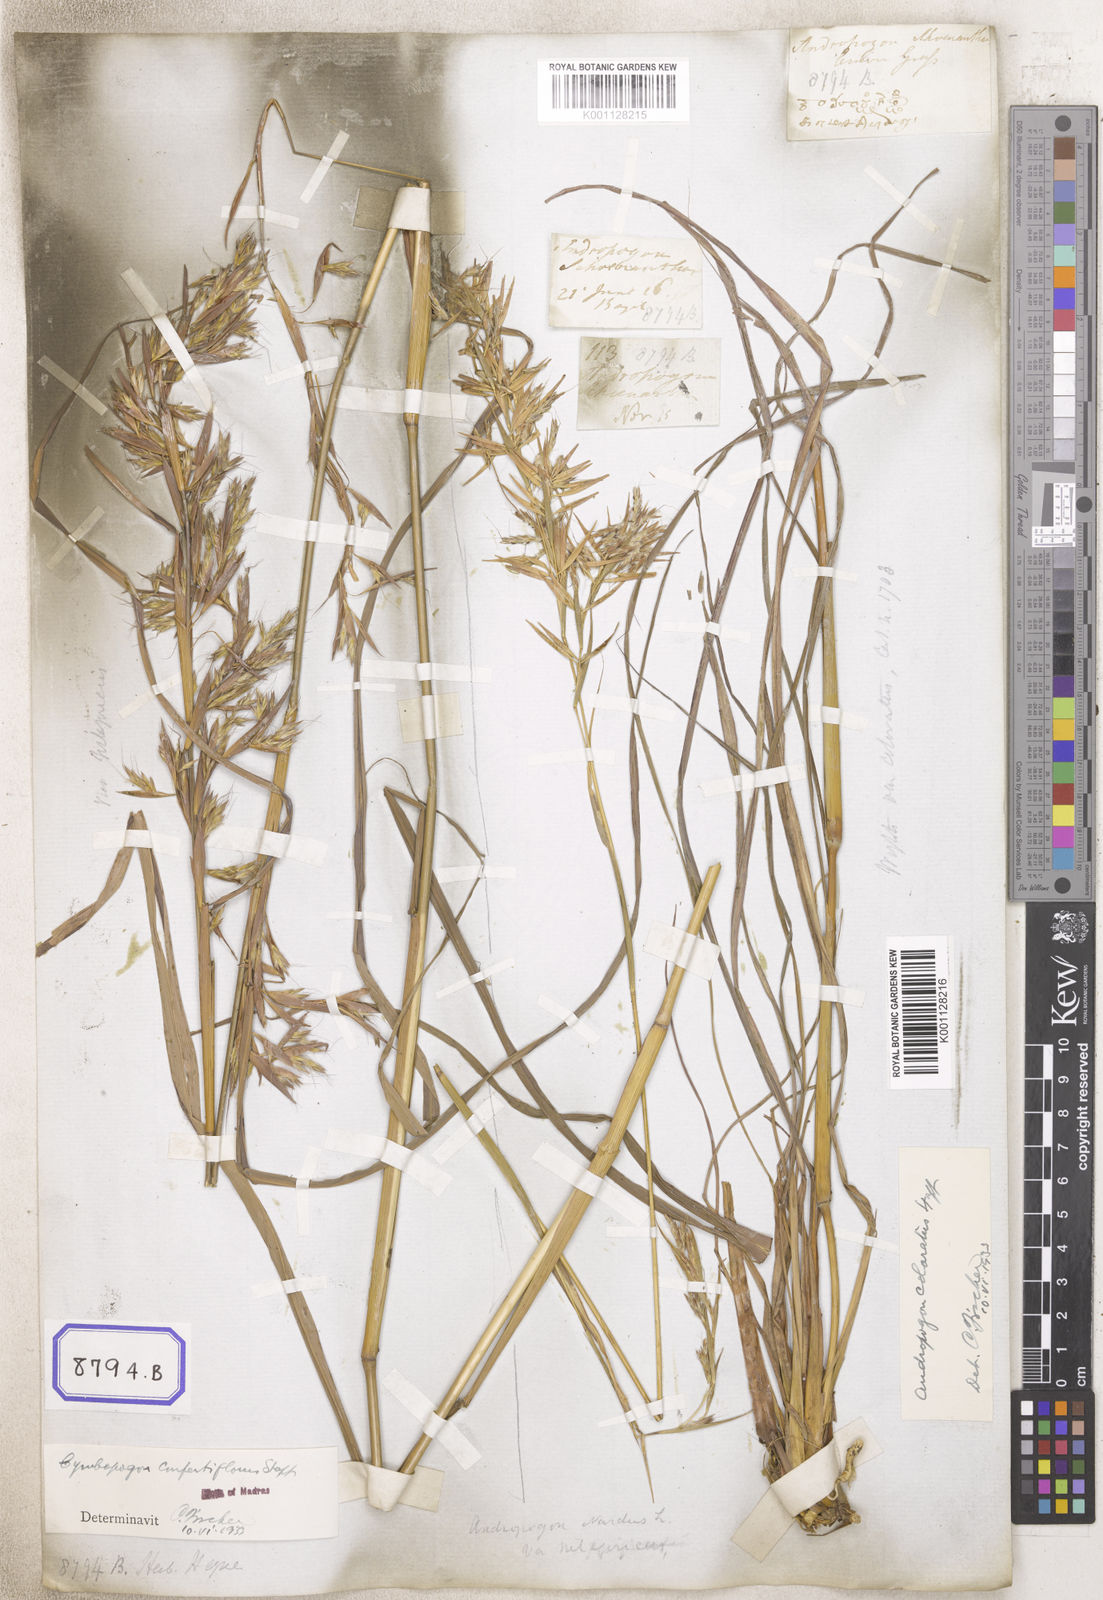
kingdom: Plantae
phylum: Tracheophyta
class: Liliopsida
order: Poales
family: Poaceae
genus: Cymbopogon
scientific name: Cymbopogon schoenanthus
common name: Geranium grass
